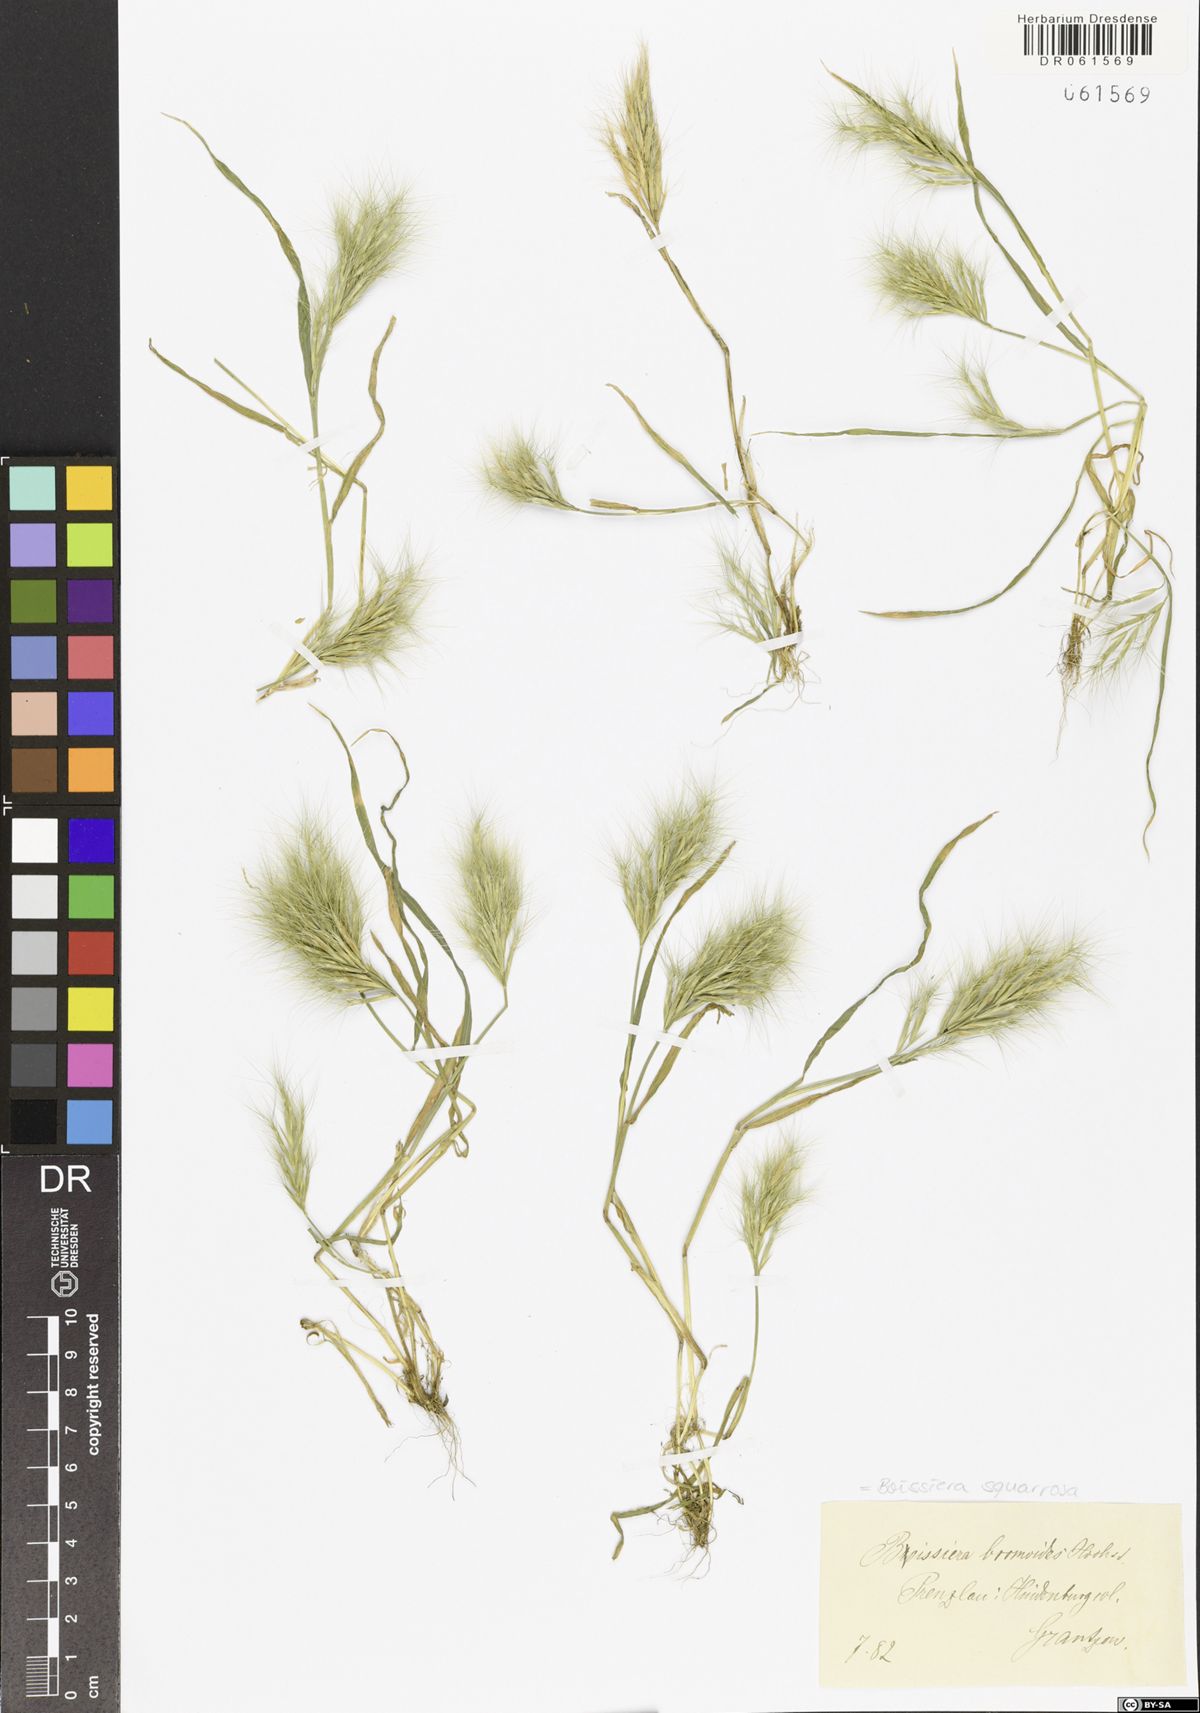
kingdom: Plantae
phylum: Tracheophyta
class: Liliopsida
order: Poales
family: Poaceae
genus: Bromus
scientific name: Bromus pumilio
